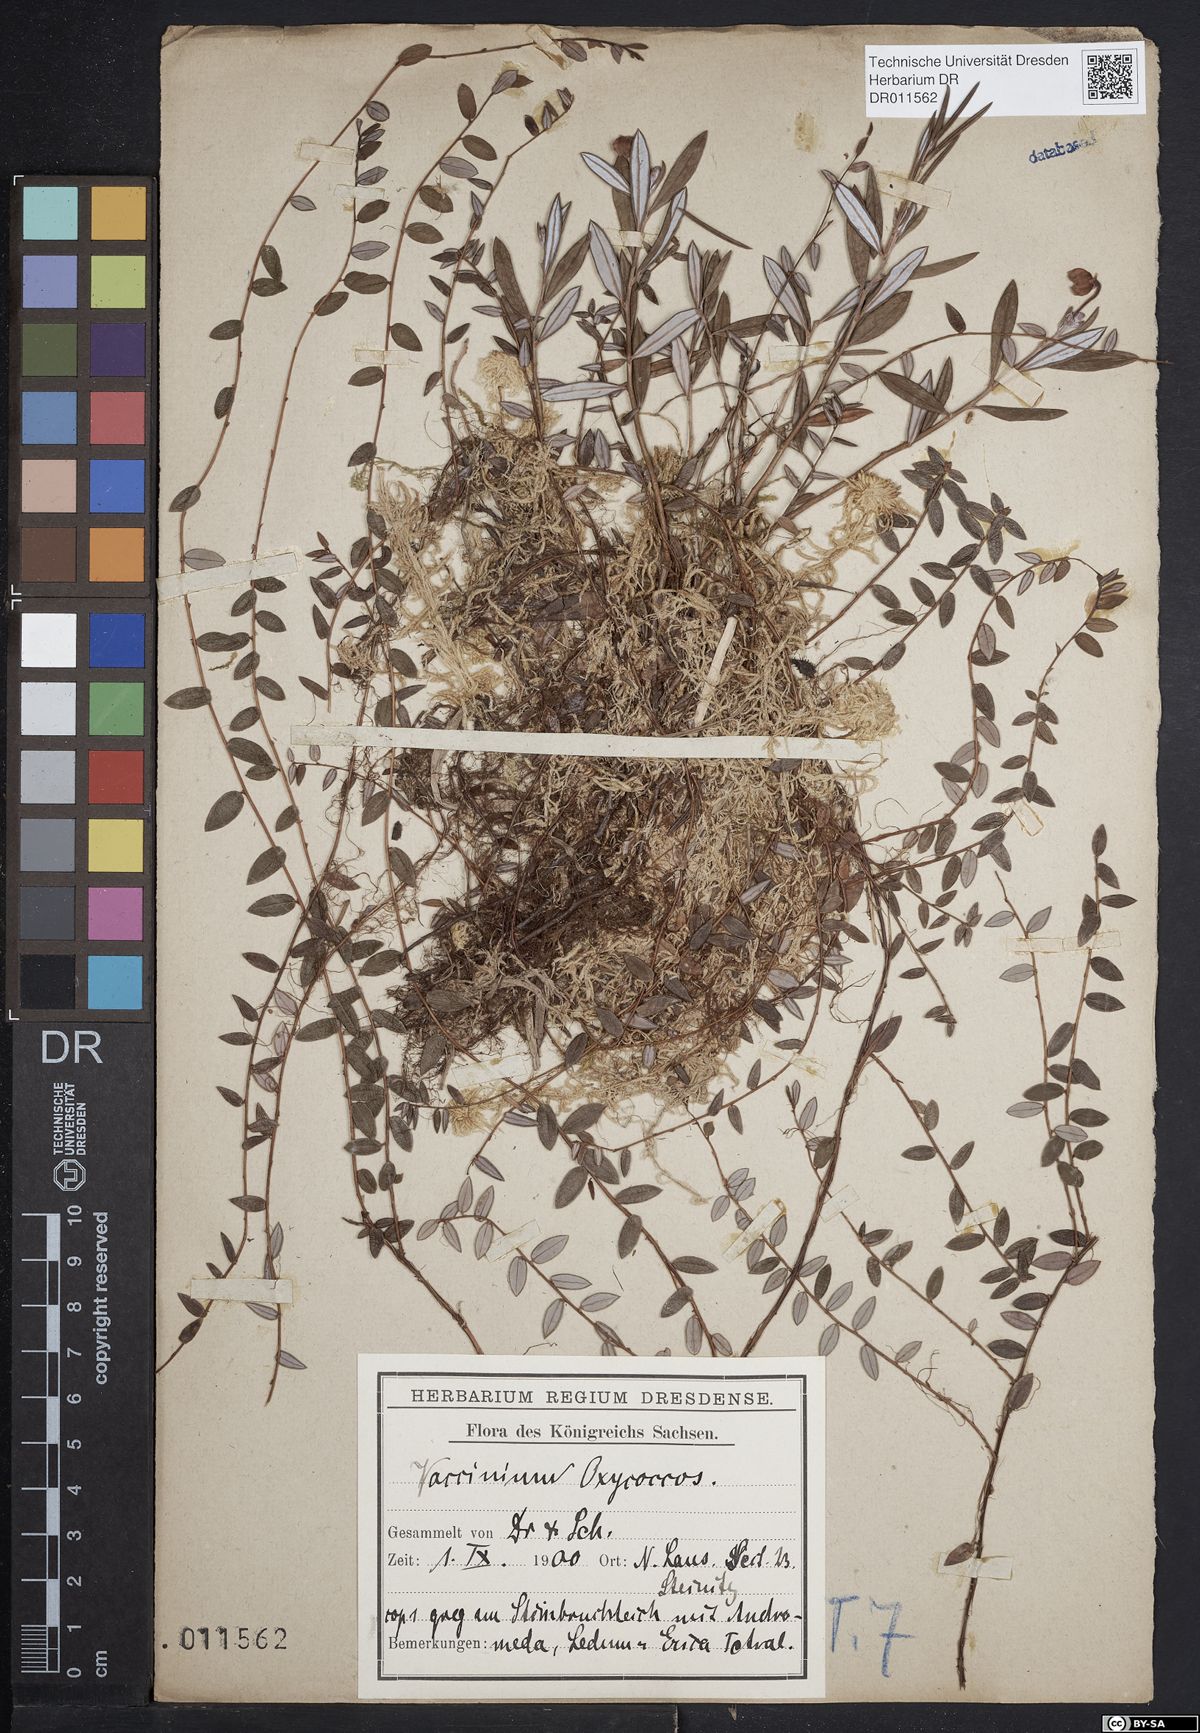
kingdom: Plantae
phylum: Tracheophyta
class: Magnoliopsida
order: Ericales
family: Ericaceae
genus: Vaccinium
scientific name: Vaccinium oxycoccos
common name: Cranberry
